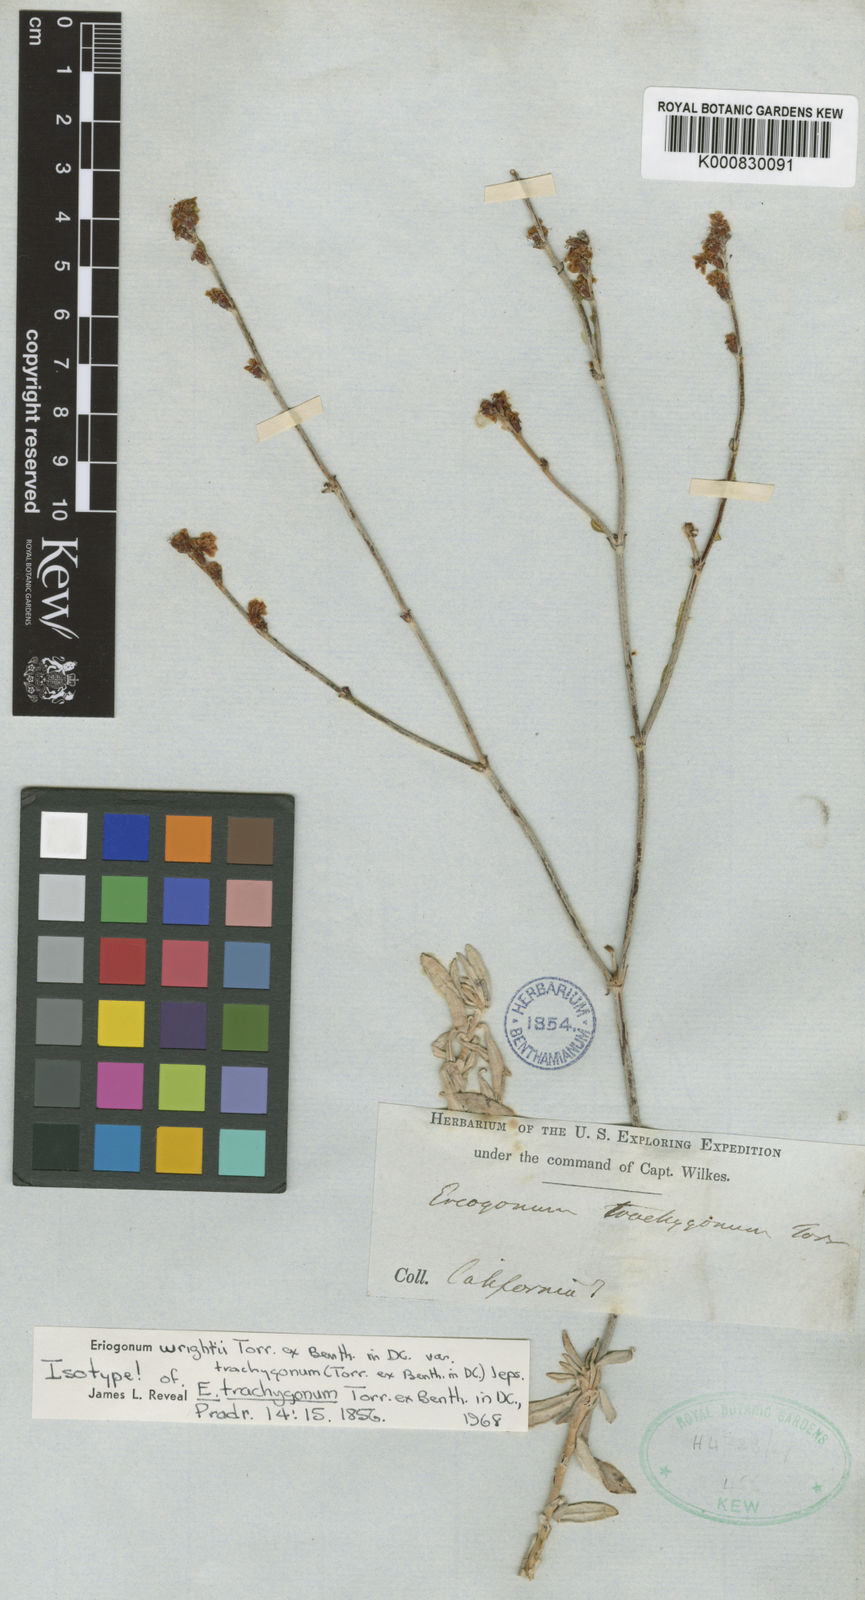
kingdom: Plantae
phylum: Tracheophyta
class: Magnoliopsida
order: Caryophyllales
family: Polygonaceae
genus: Eriogonum
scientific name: Eriogonum wrightii
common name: Bastard-sage
